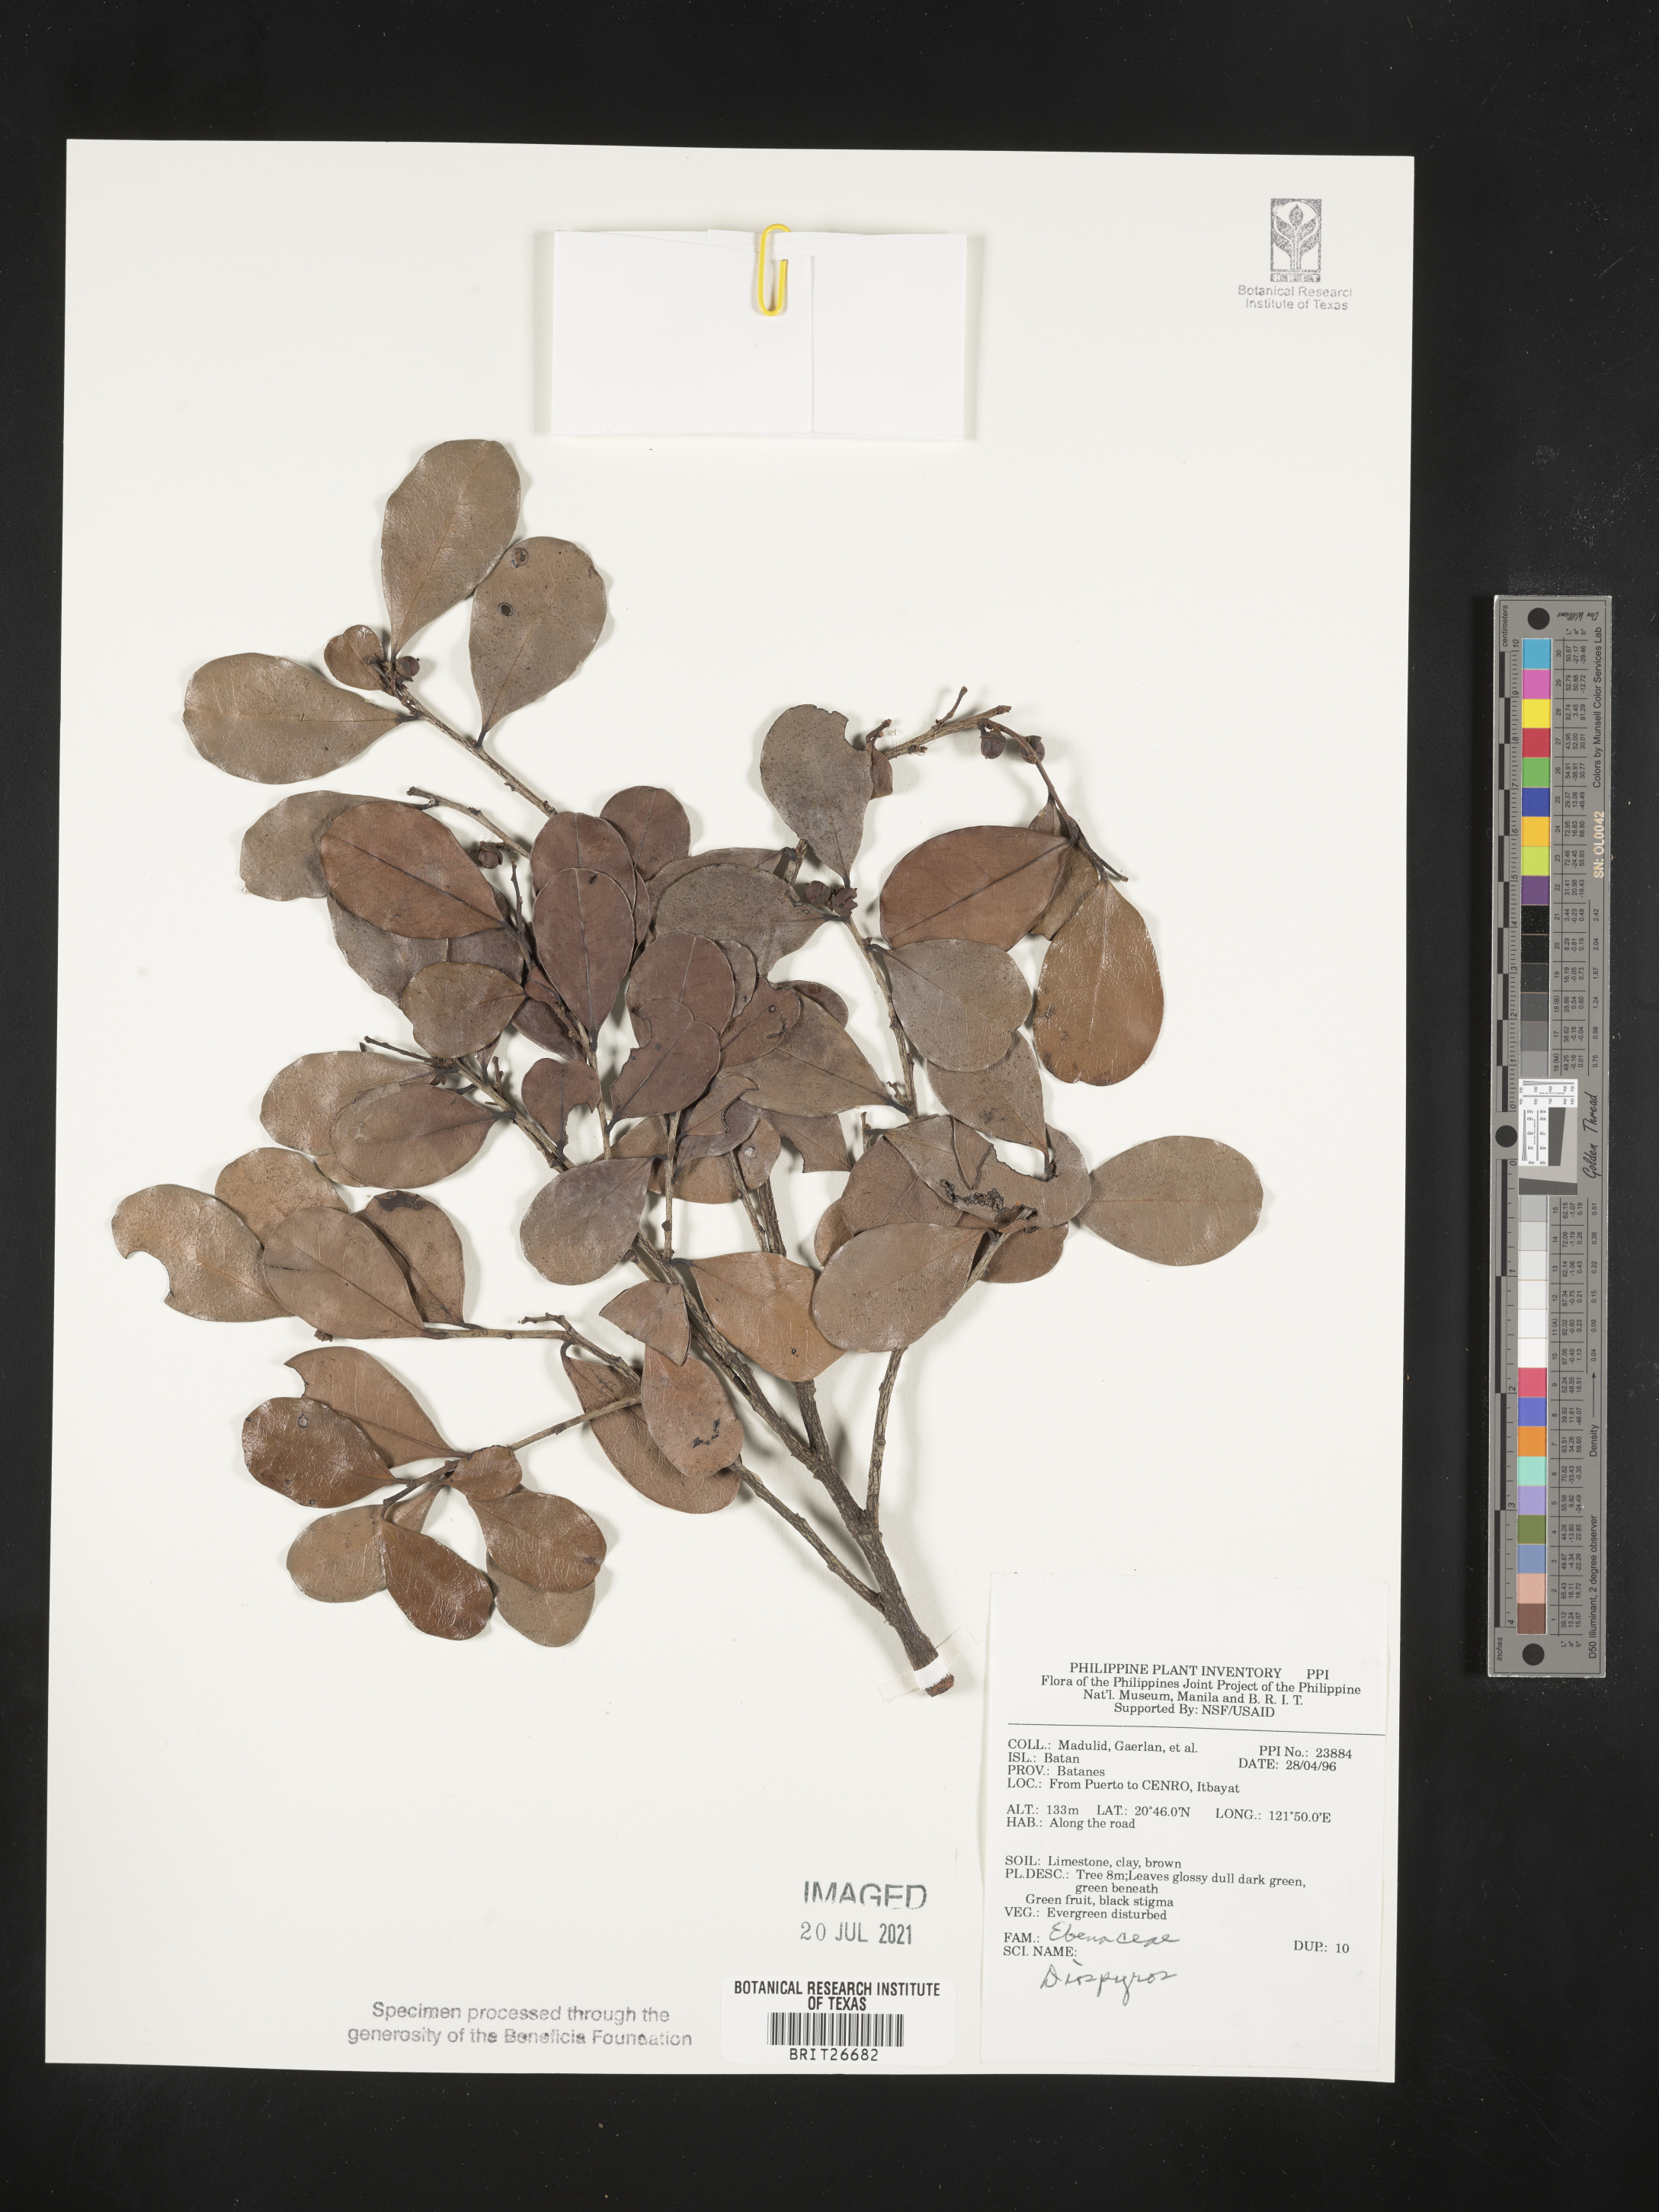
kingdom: Plantae
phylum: Tracheophyta
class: Magnoliopsida
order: Ericales
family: Ebenaceae
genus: Diospyros
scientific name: Diospyros
